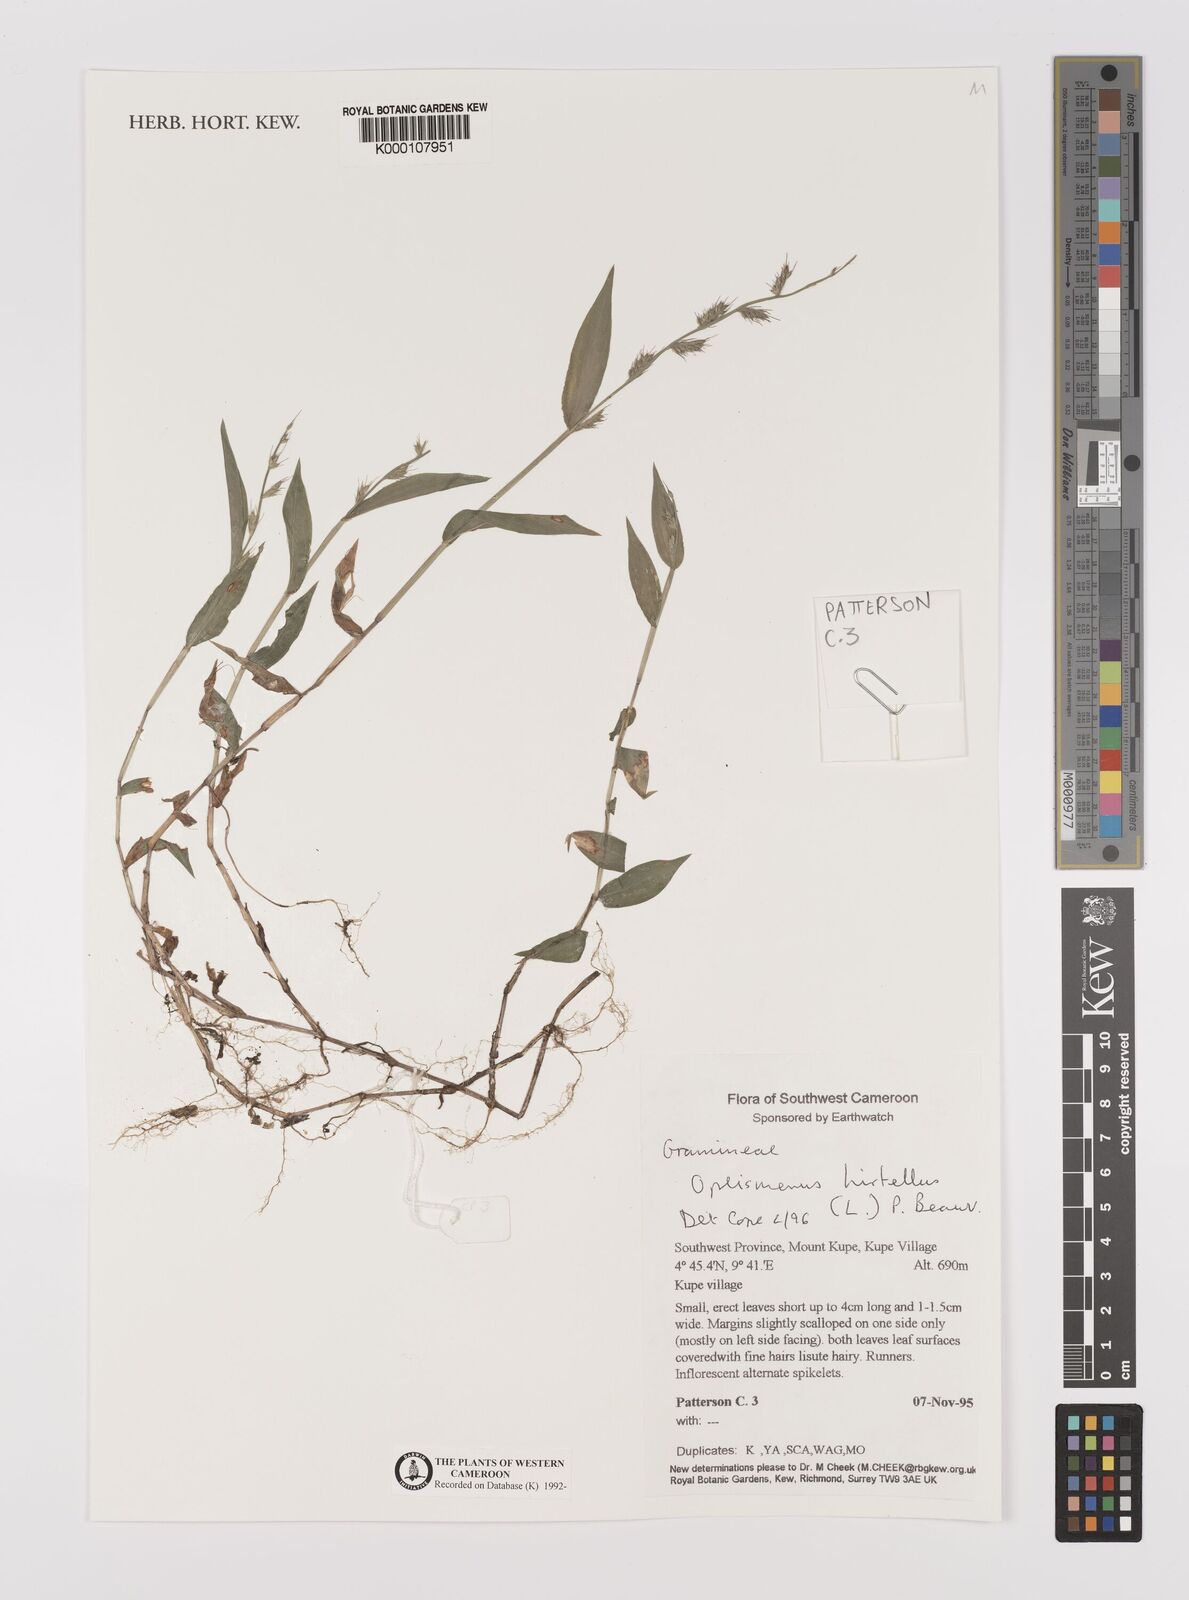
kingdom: Plantae
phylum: Tracheophyta
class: Liliopsida
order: Poales
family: Poaceae
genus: Oplismenus
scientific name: Oplismenus hirtellus
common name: Basketgrass
